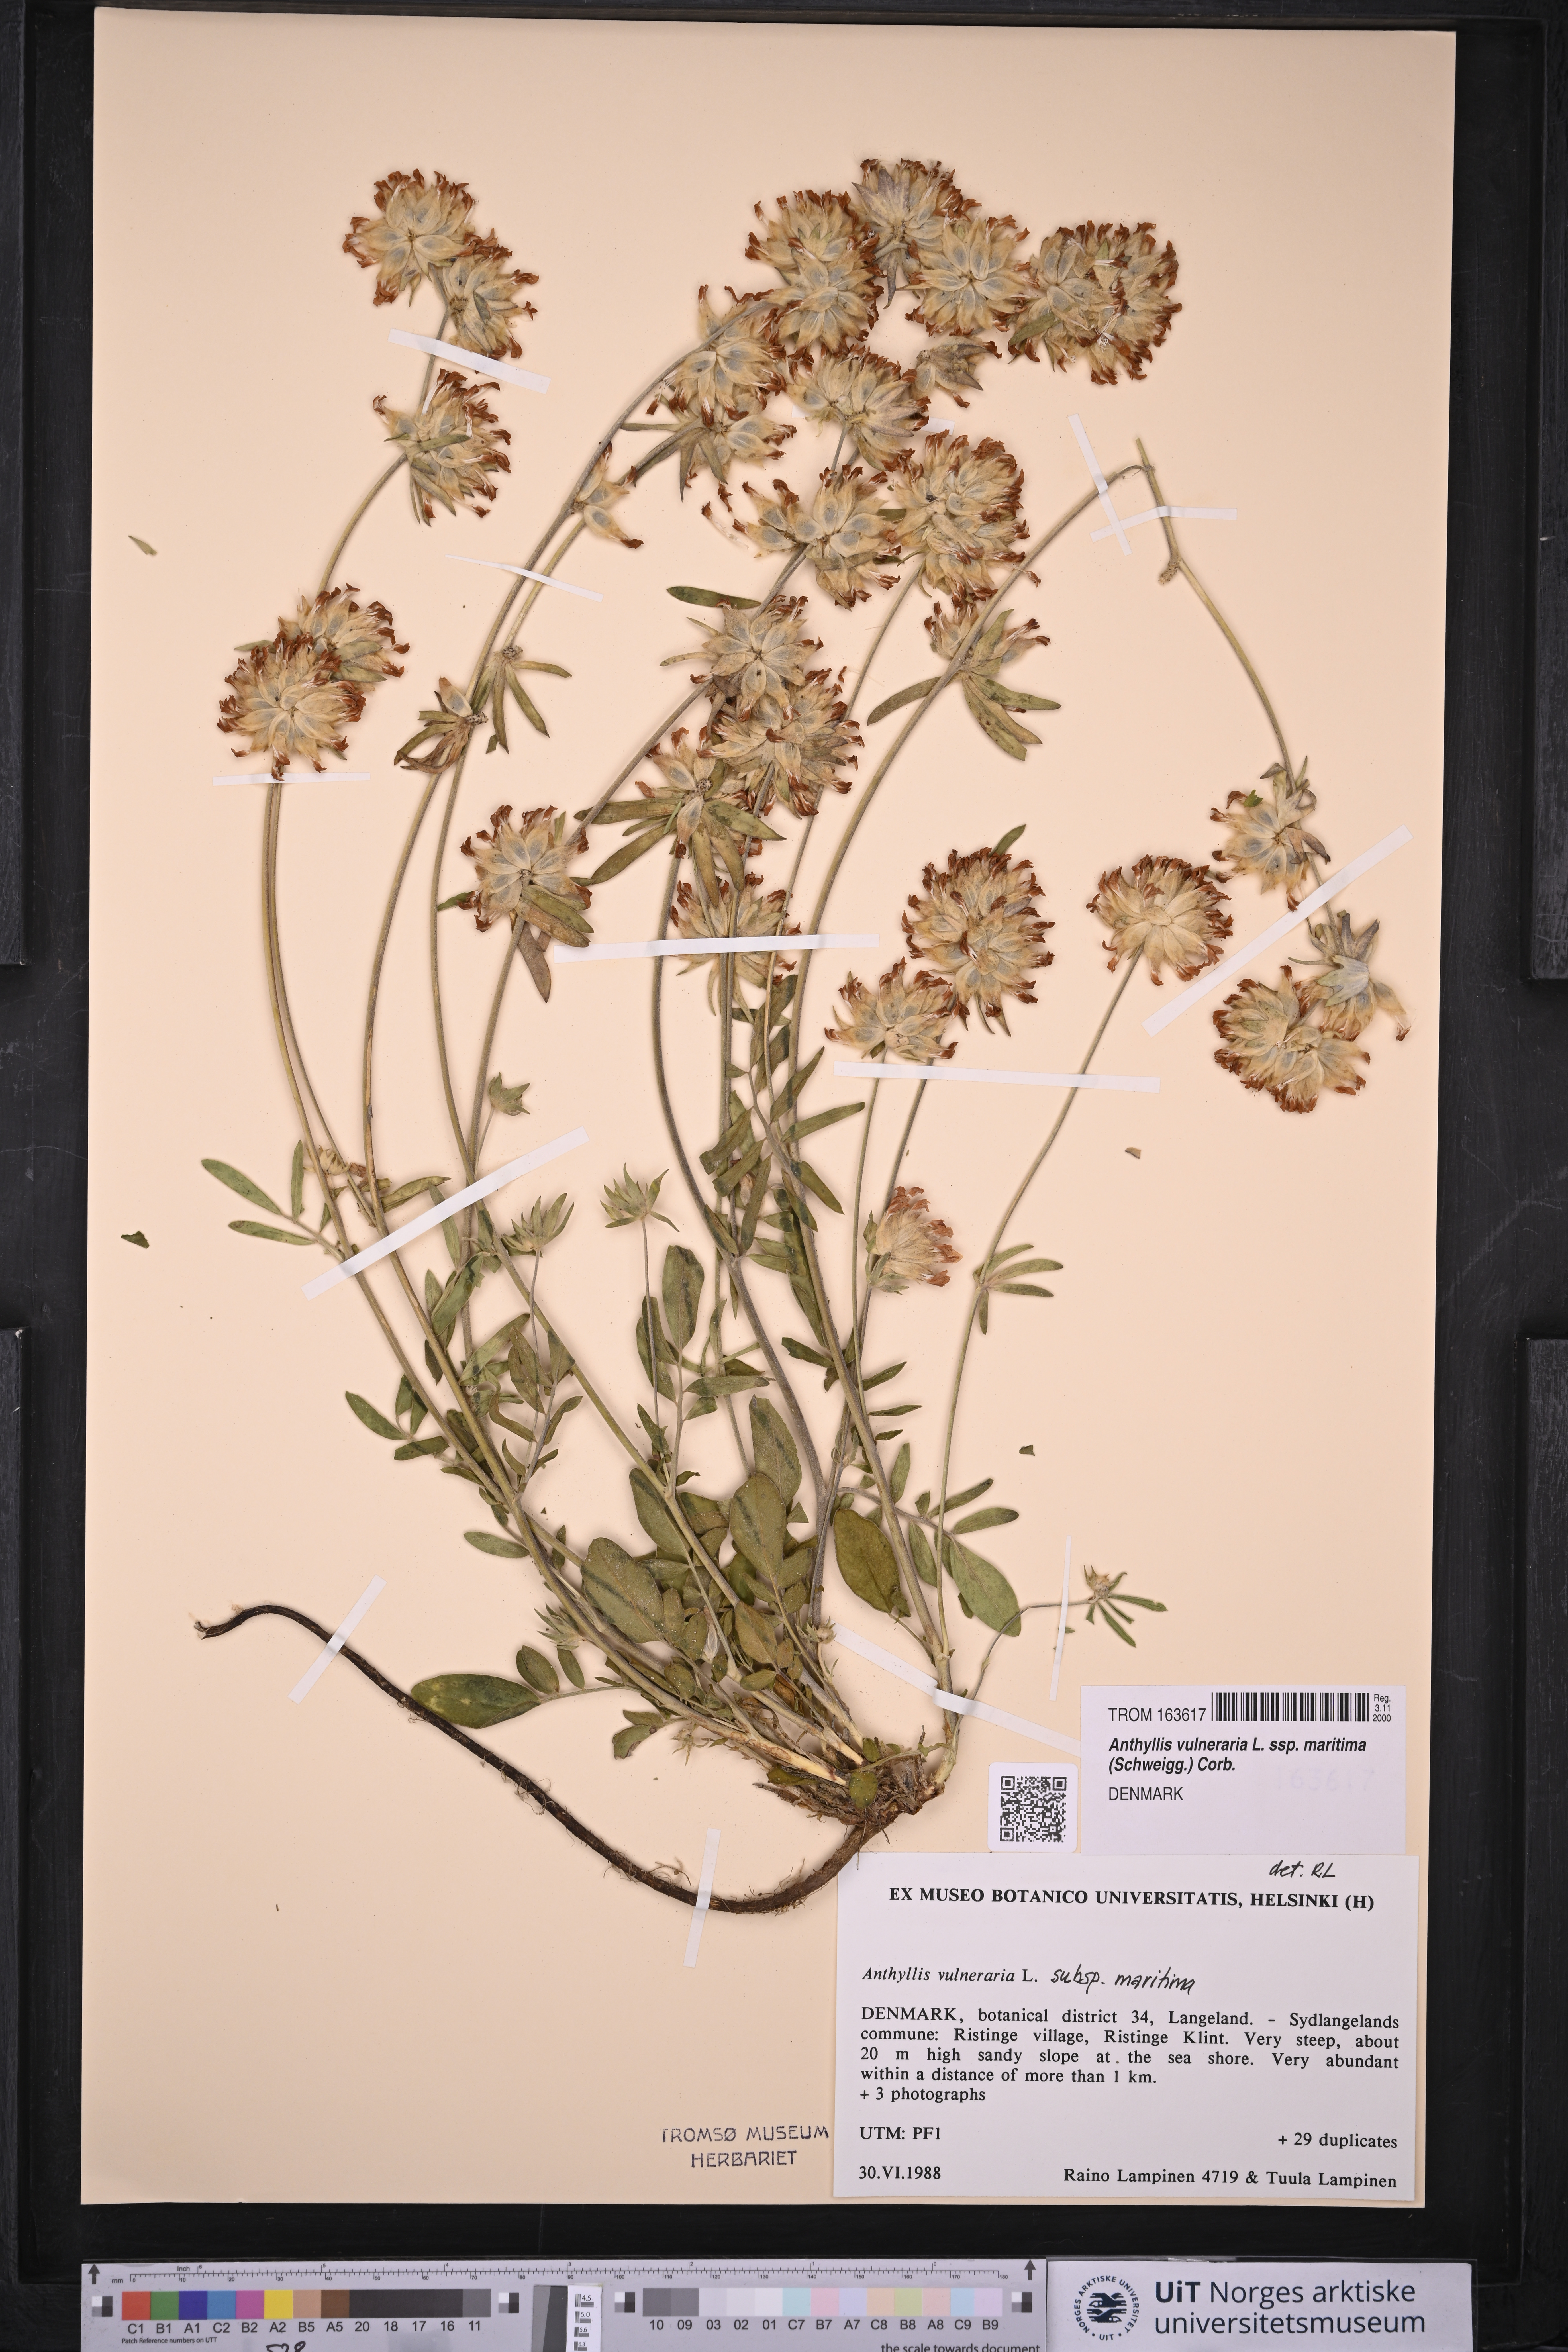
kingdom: Plantae
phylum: Tracheophyta
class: Magnoliopsida
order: Fabales
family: Fabaceae
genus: Anthyllis
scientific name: Anthyllis vulneraria
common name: Kidney vetch
